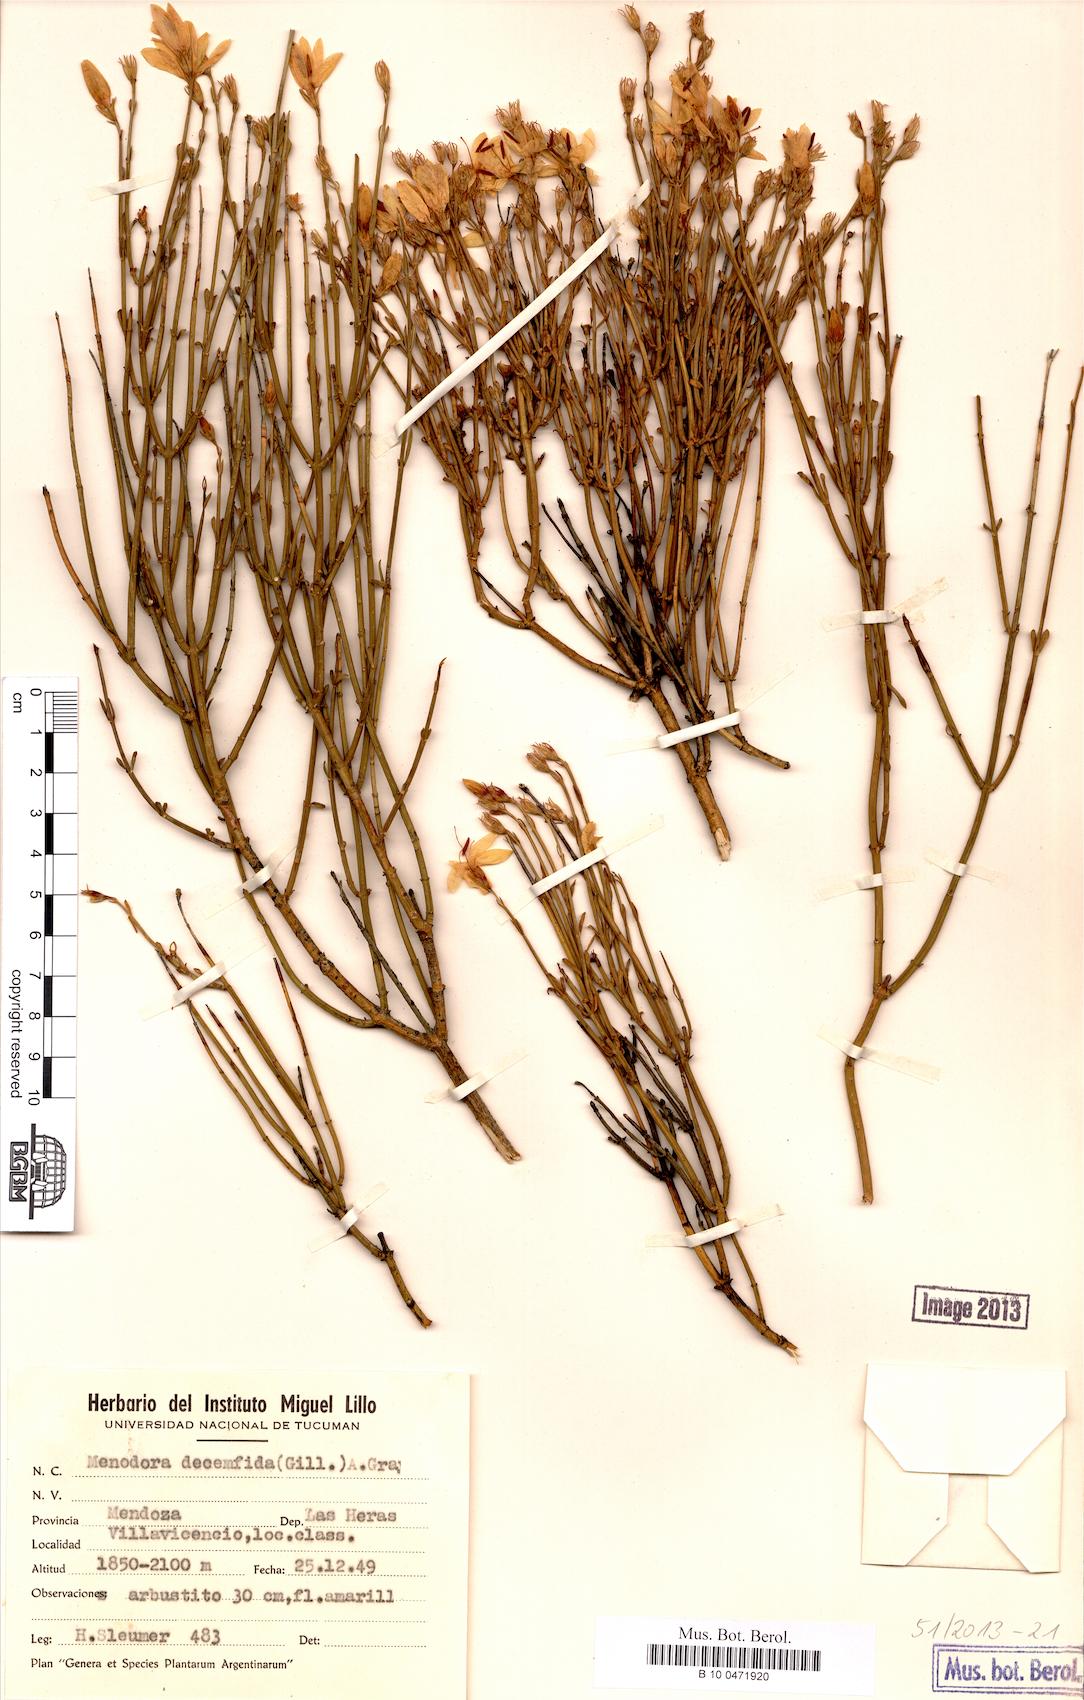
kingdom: Plantae
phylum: Tracheophyta
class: Magnoliopsida
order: Lamiales
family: Oleaceae
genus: Menodora
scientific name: Menodora decemfida
